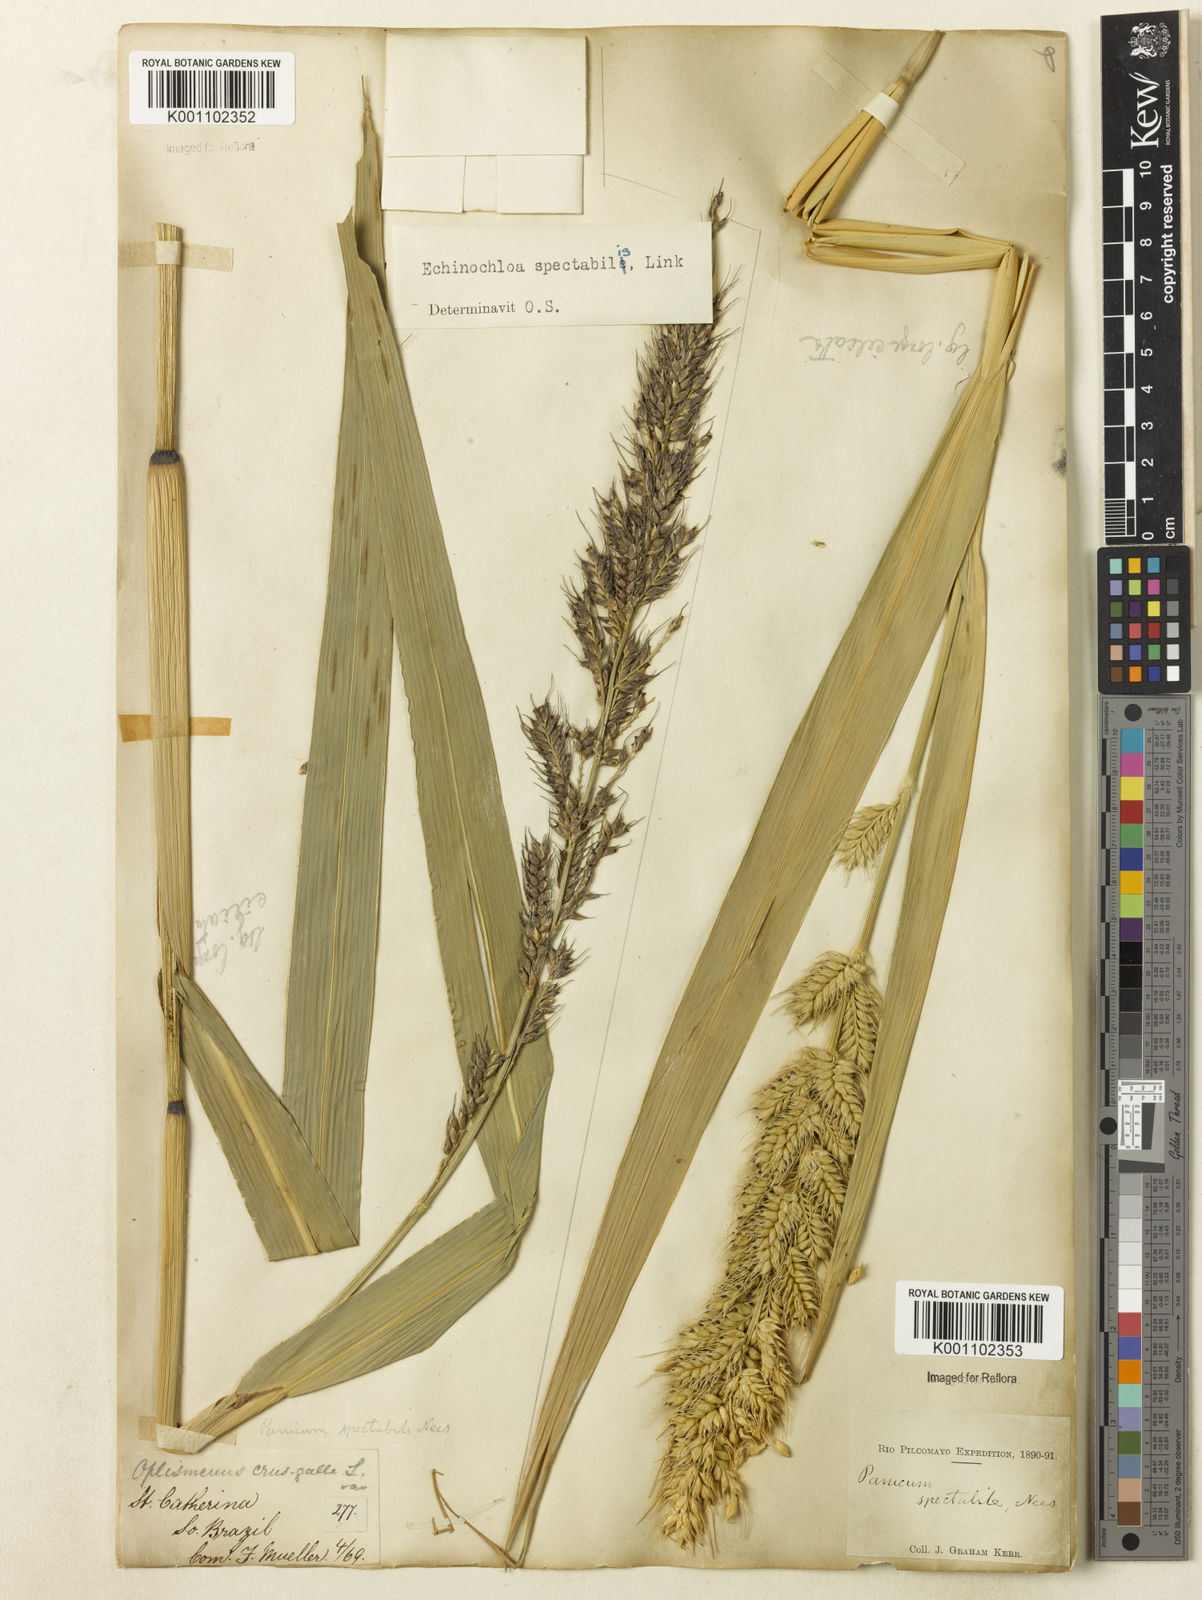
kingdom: Plantae
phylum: Tracheophyta
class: Liliopsida
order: Poales
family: Poaceae
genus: Echinochloa
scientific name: Echinochloa polystachya
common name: Creeping river grass
